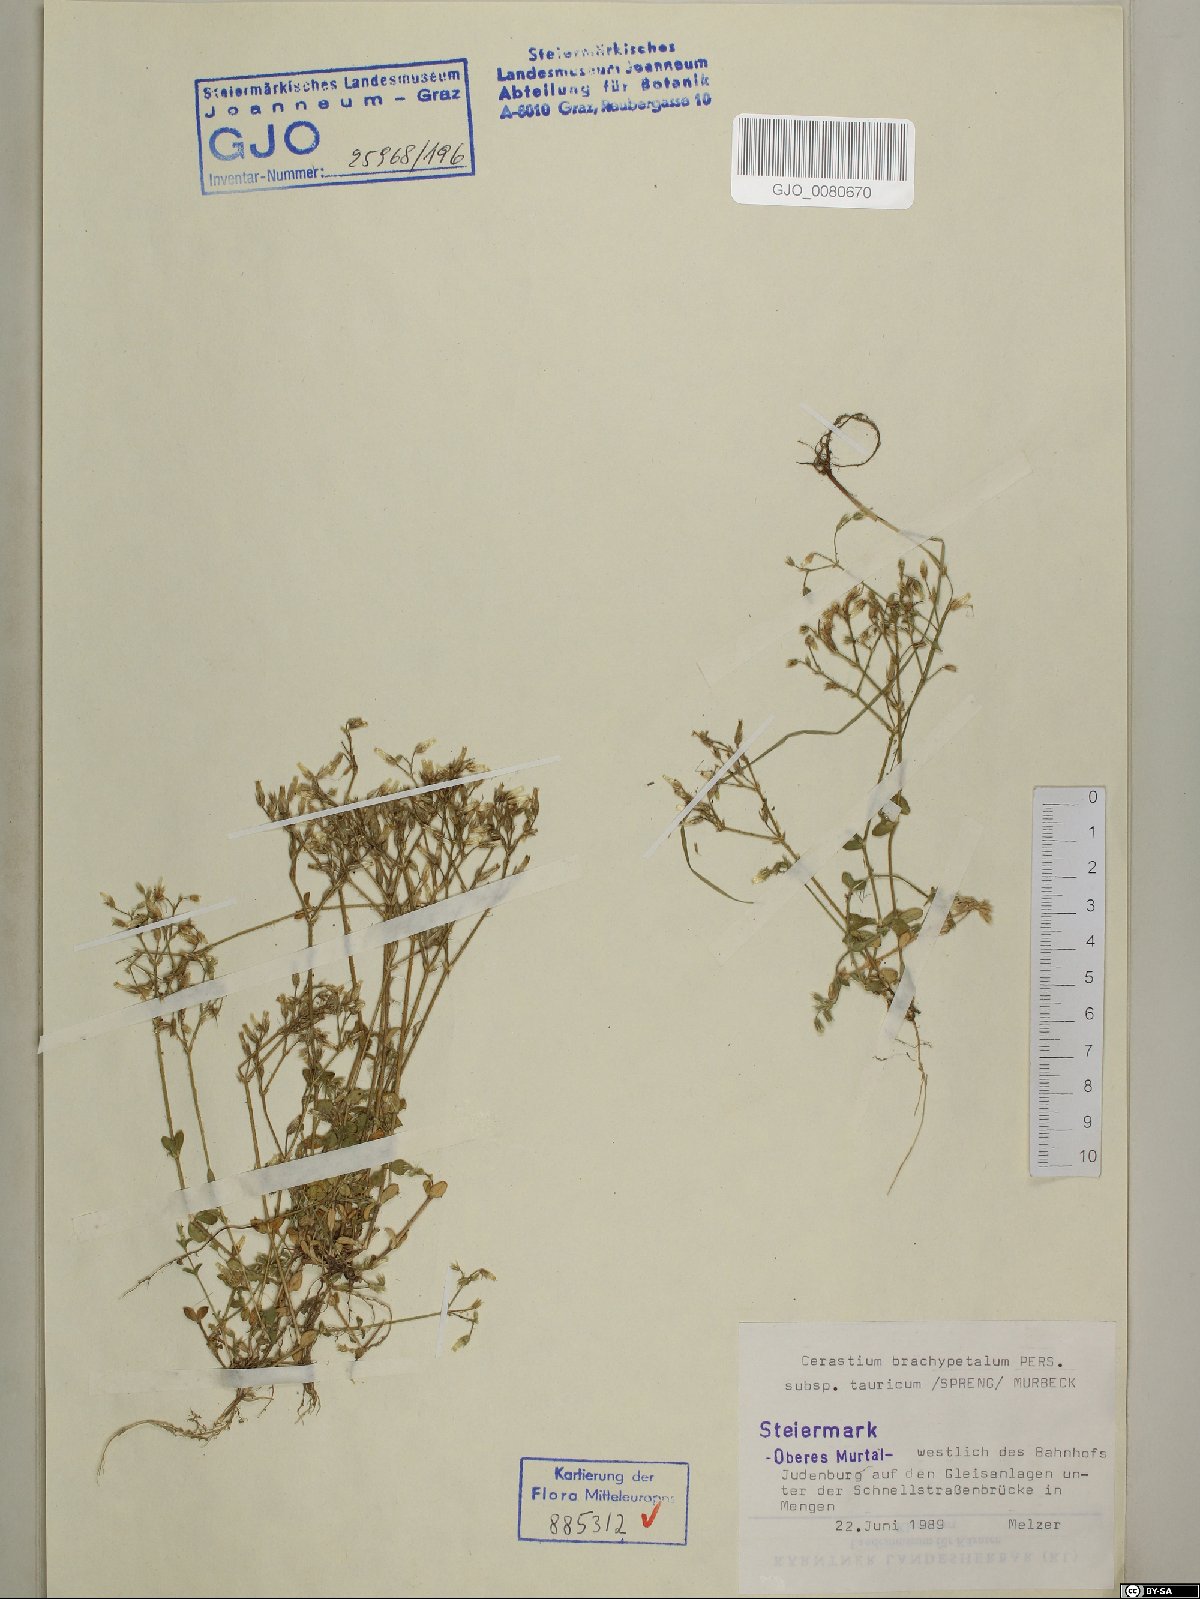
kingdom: Plantae
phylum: Tracheophyta
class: Magnoliopsida
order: Caryophyllales
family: Caryophyllaceae
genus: Cerastium
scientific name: Cerastium brachypetalum
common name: Grey mouse-ear
